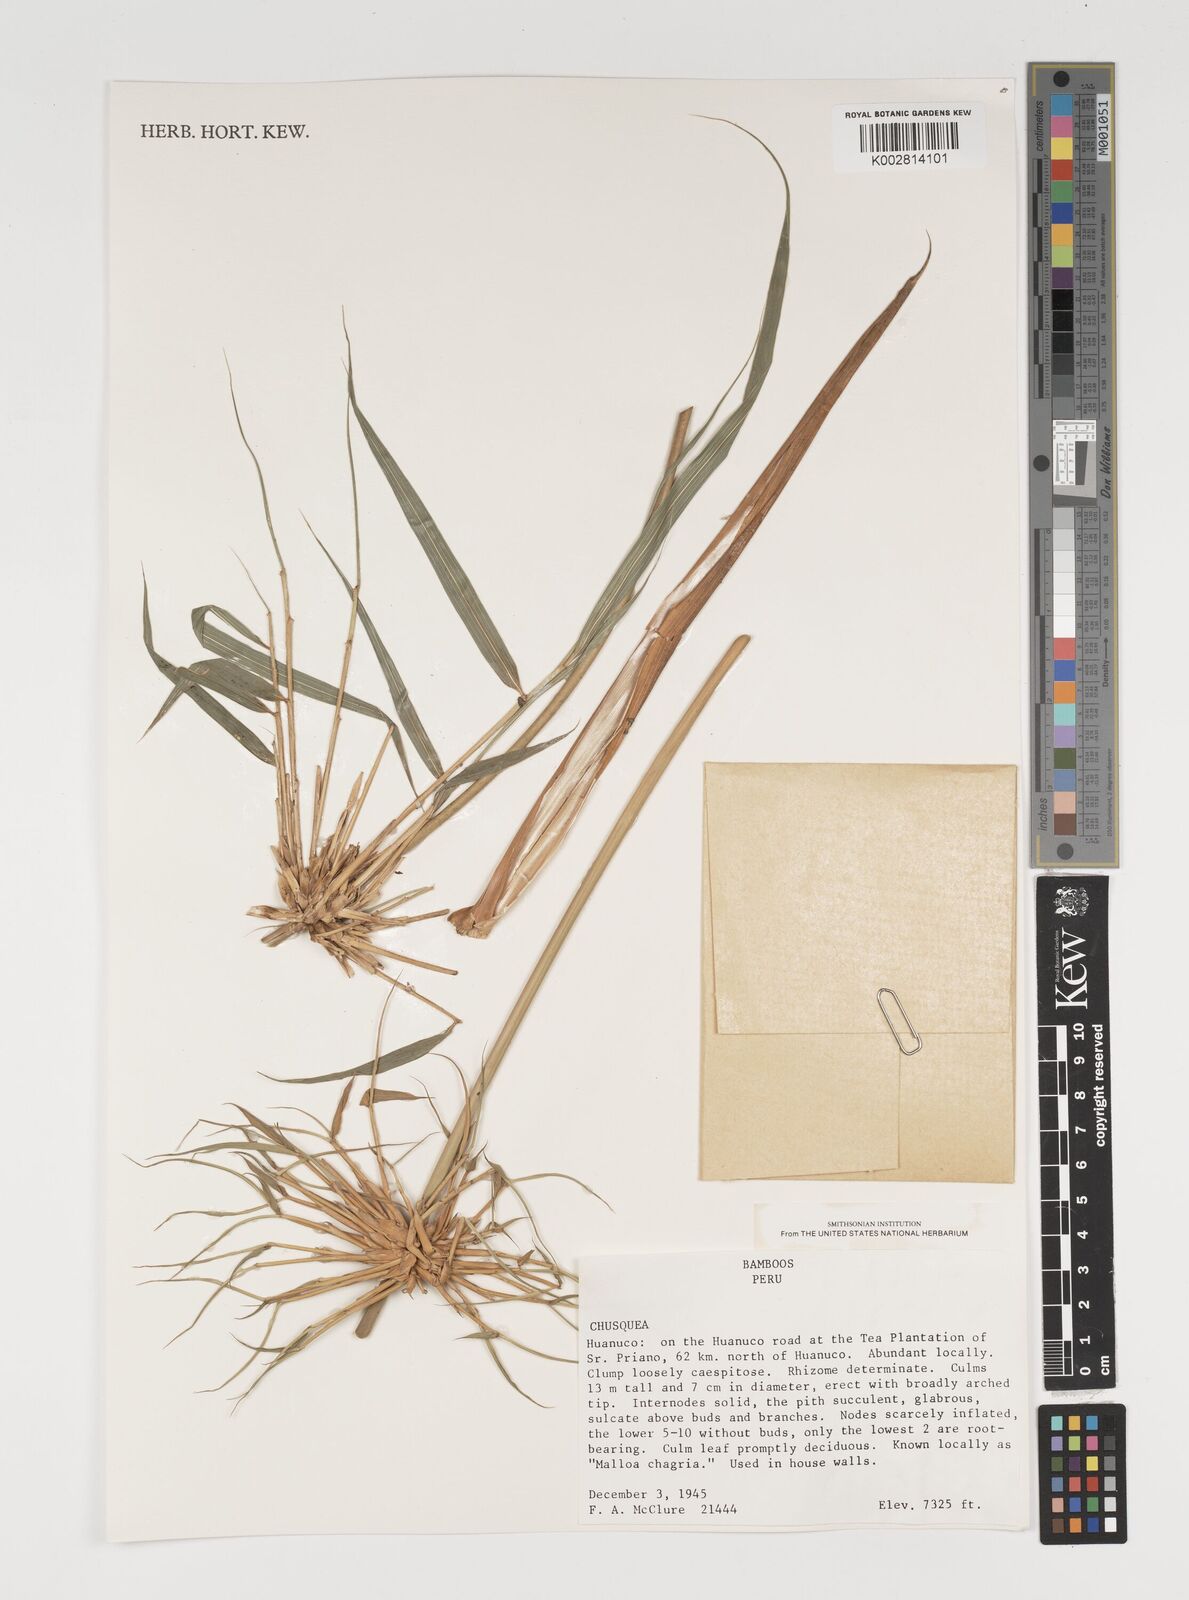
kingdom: Plantae
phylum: Tracheophyta
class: Liliopsida
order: Poales
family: Poaceae
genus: Chusquea
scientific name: Chusquea
